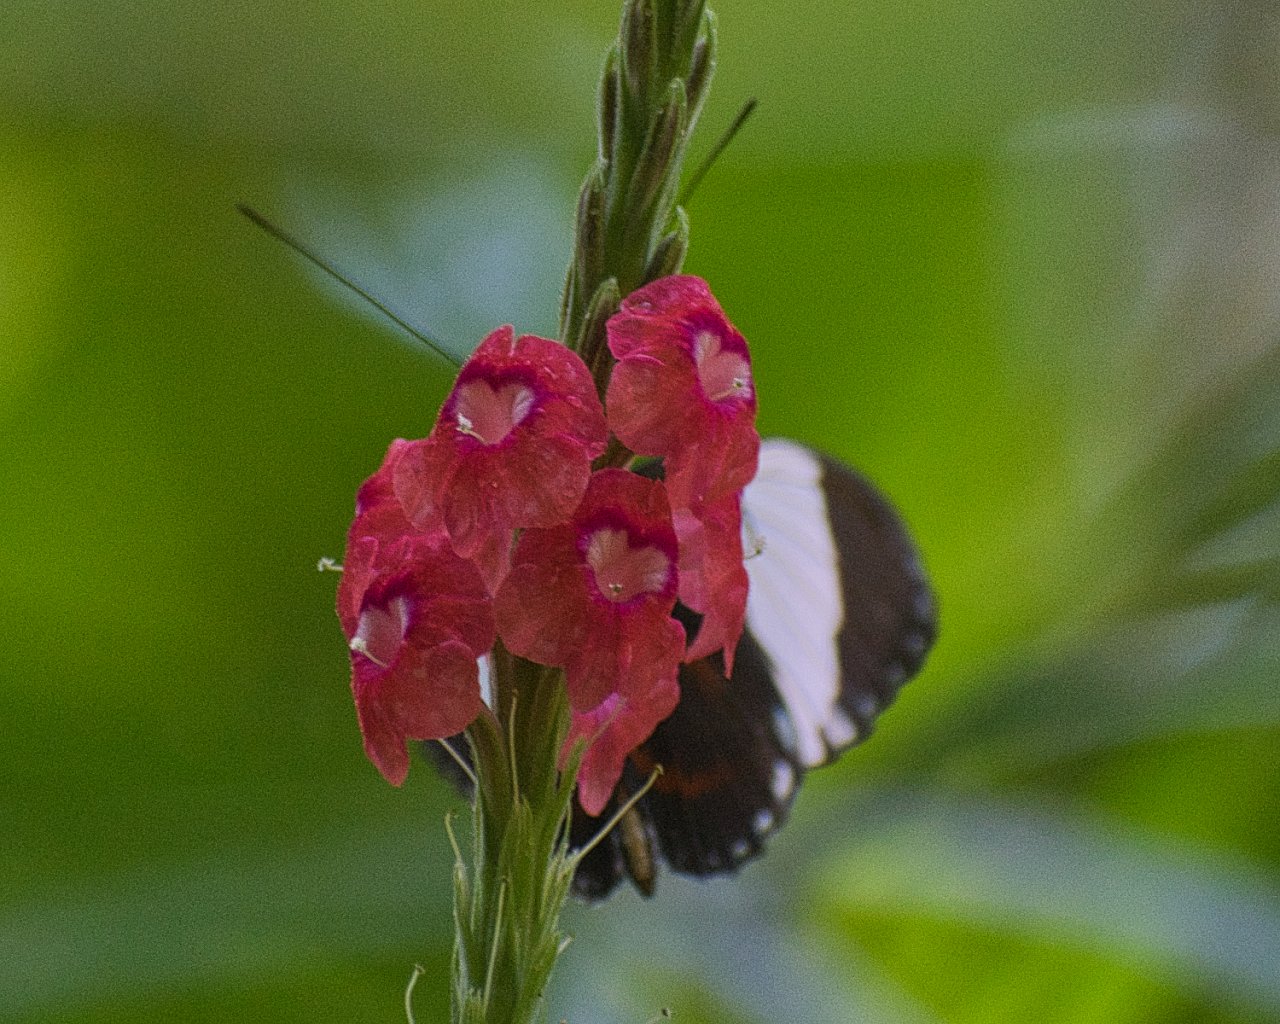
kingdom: Animalia
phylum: Arthropoda
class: Insecta
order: Lepidoptera
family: Nymphalidae
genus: Heliconius
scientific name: Heliconius cydno
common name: Cydno Longwing
